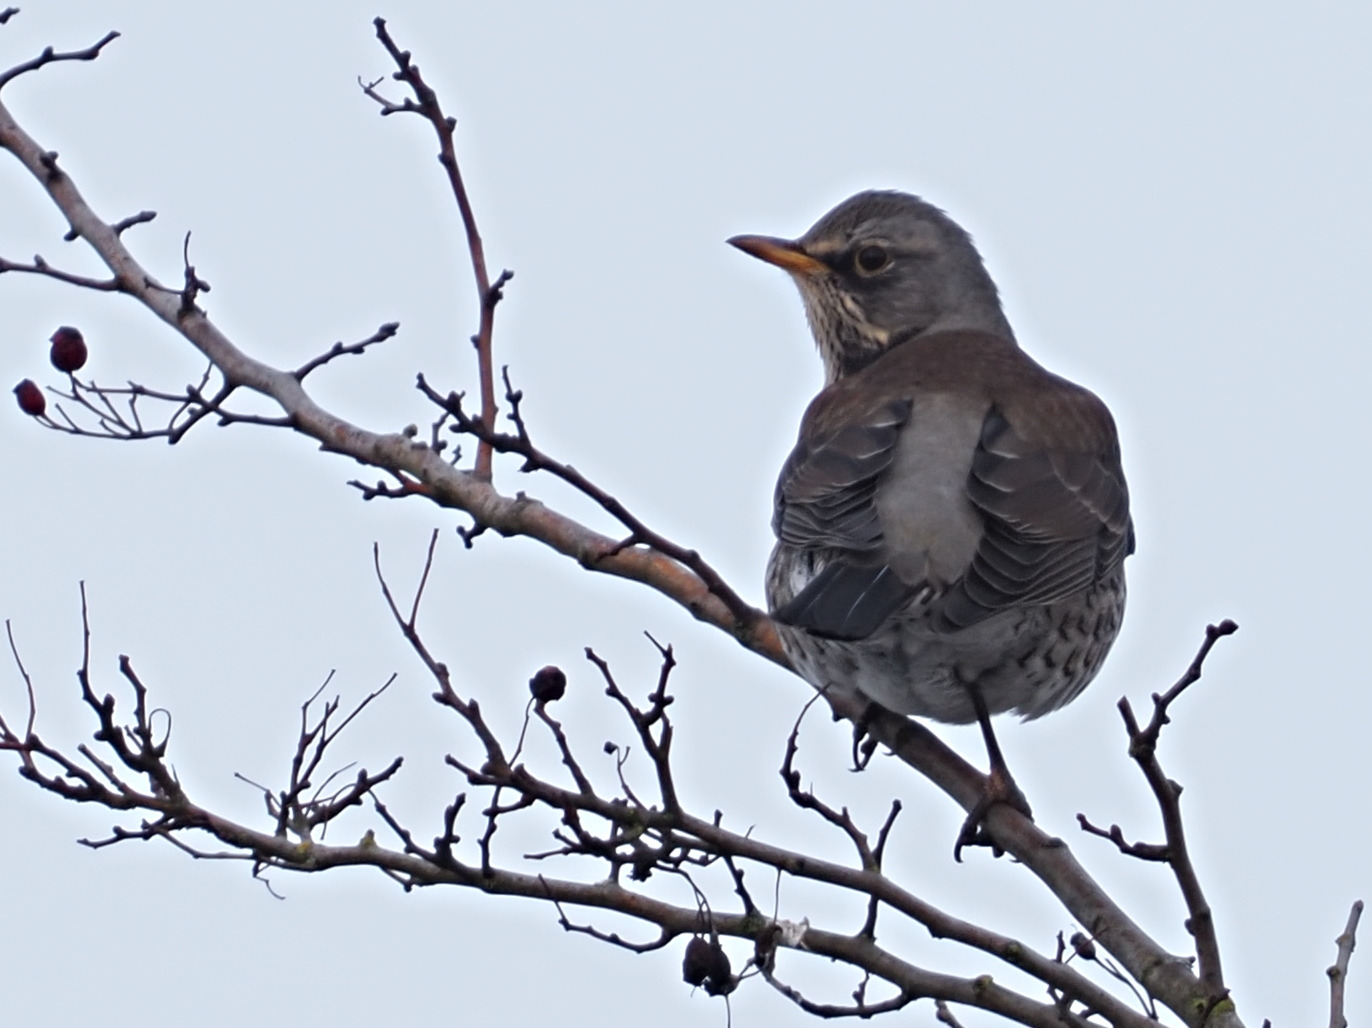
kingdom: Animalia
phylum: Chordata
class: Aves
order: Passeriformes
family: Turdidae
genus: Turdus
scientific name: Turdus pilaris
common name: Sjagger
